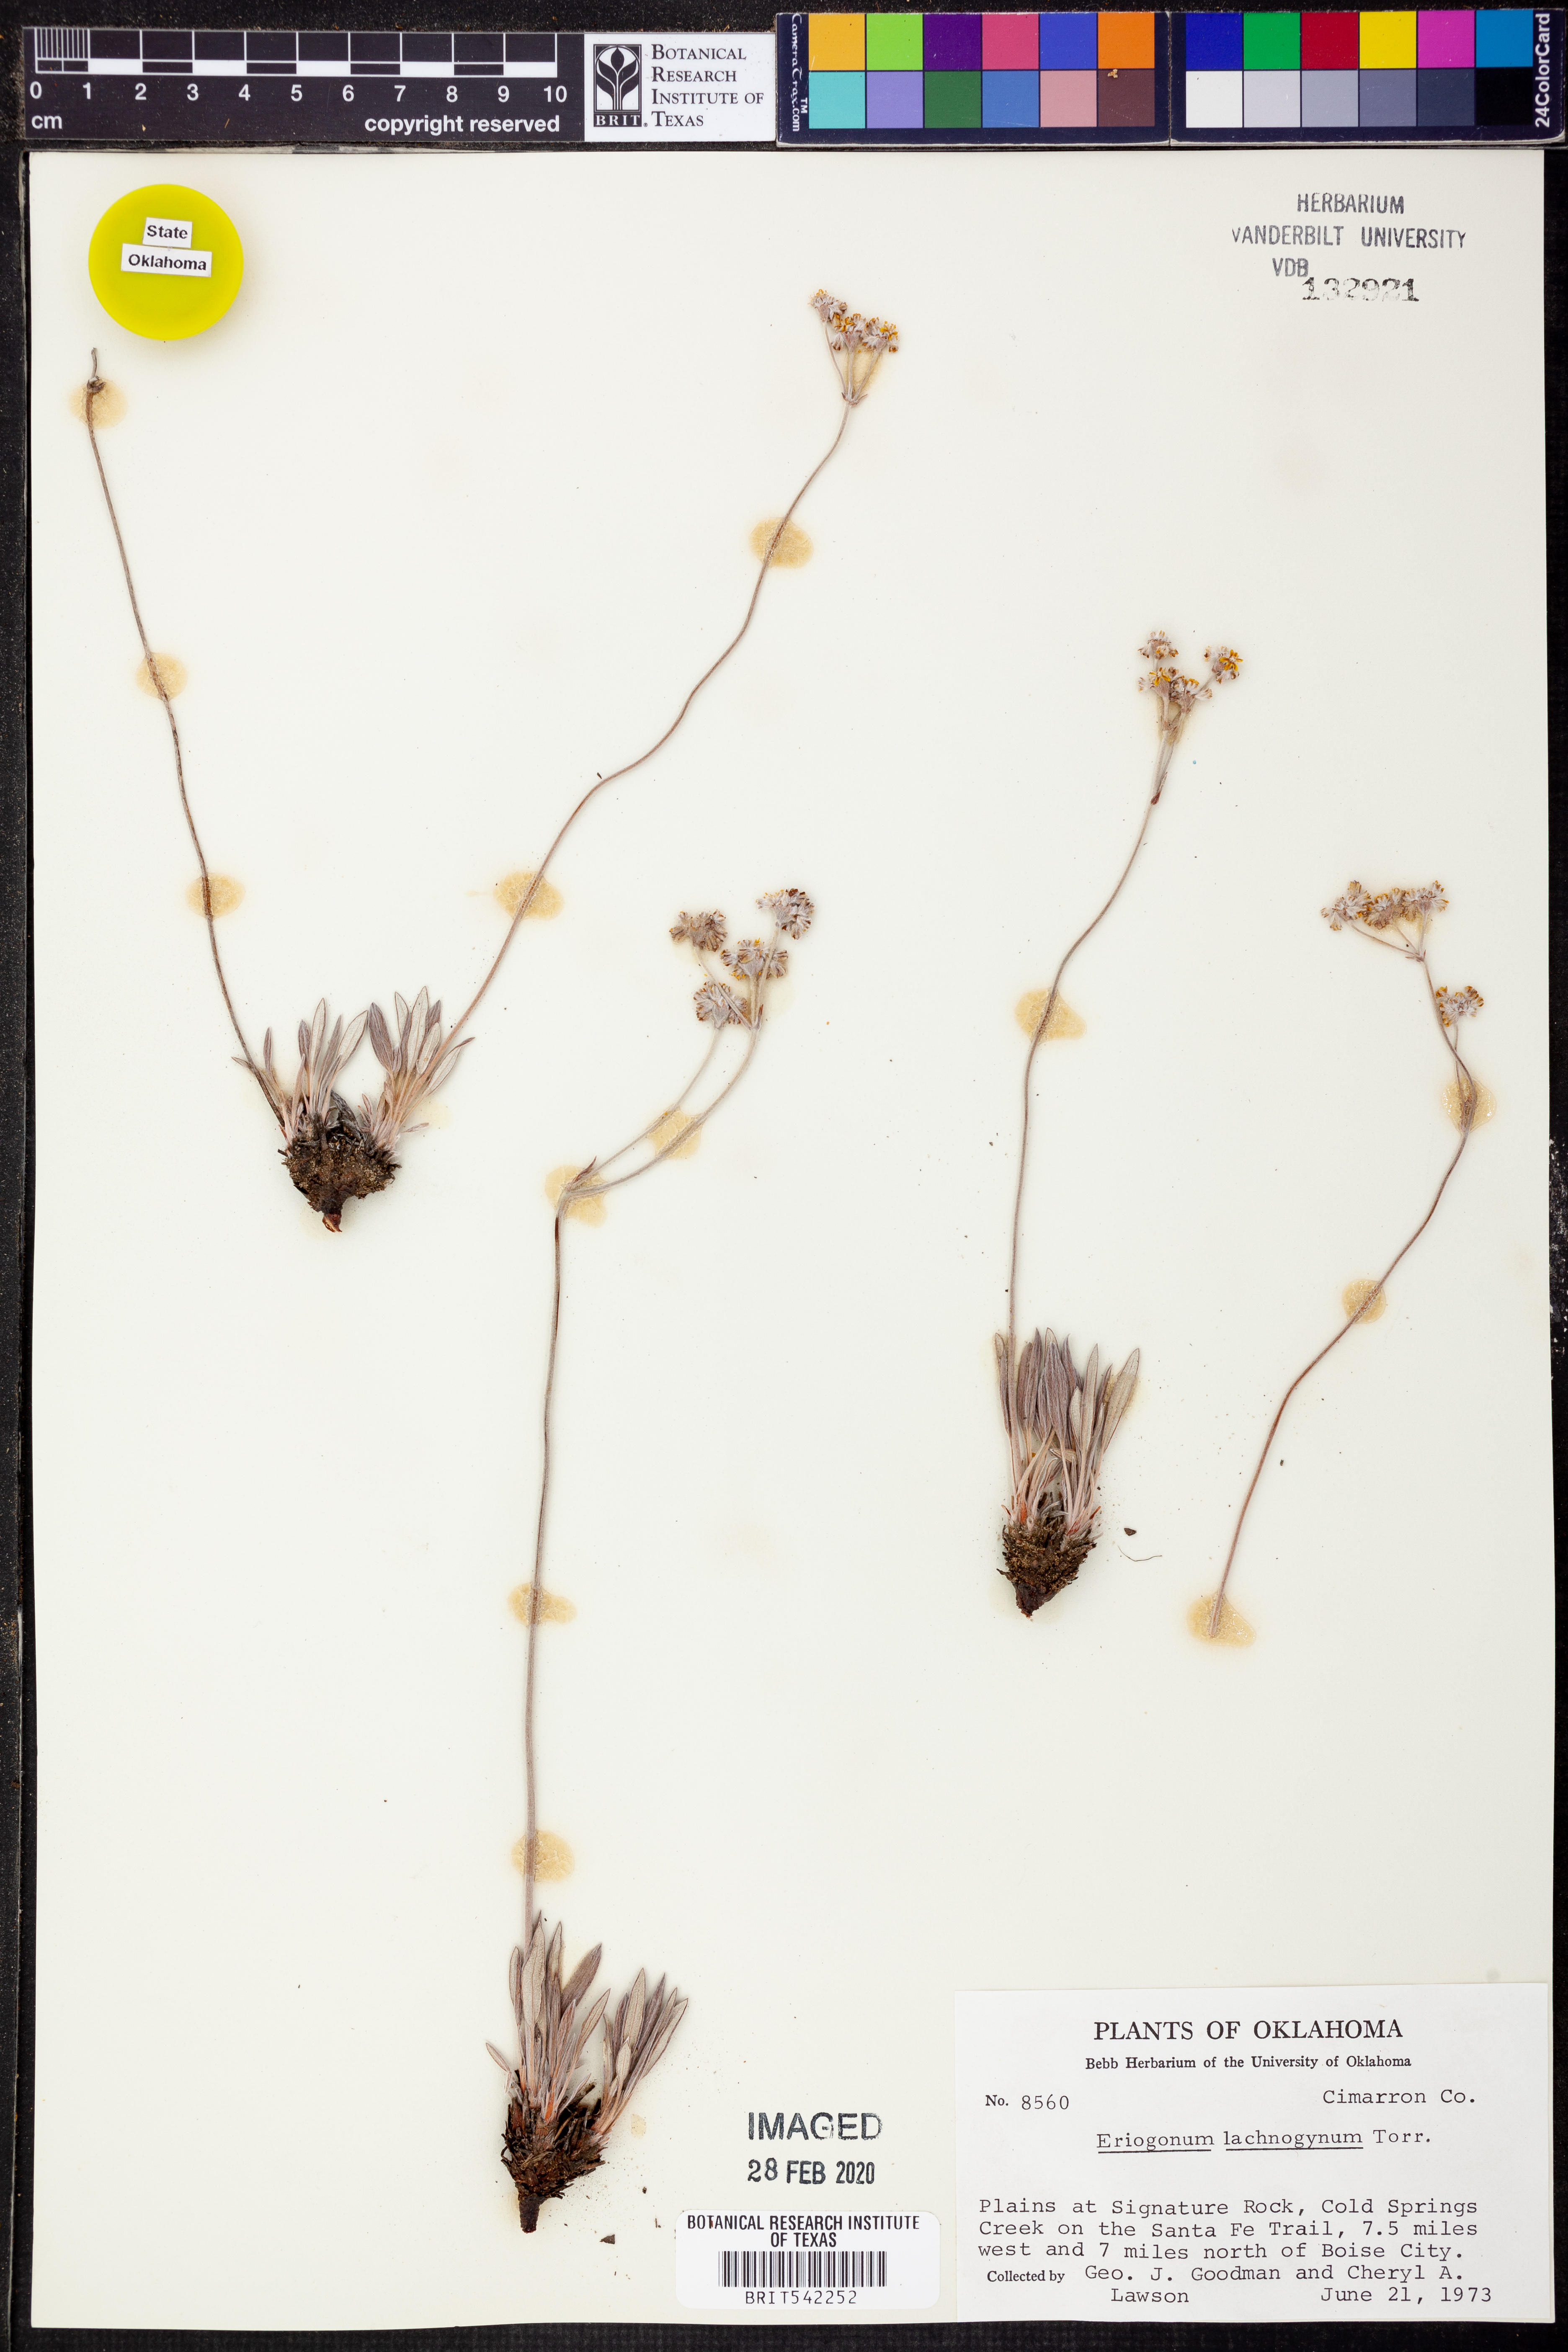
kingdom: Plantae
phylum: Tracheophyta
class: Magnoliopsida
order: Caryophyllales
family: Polygonaceae
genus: Eriogonum
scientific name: Eriogonum lachnogynum
